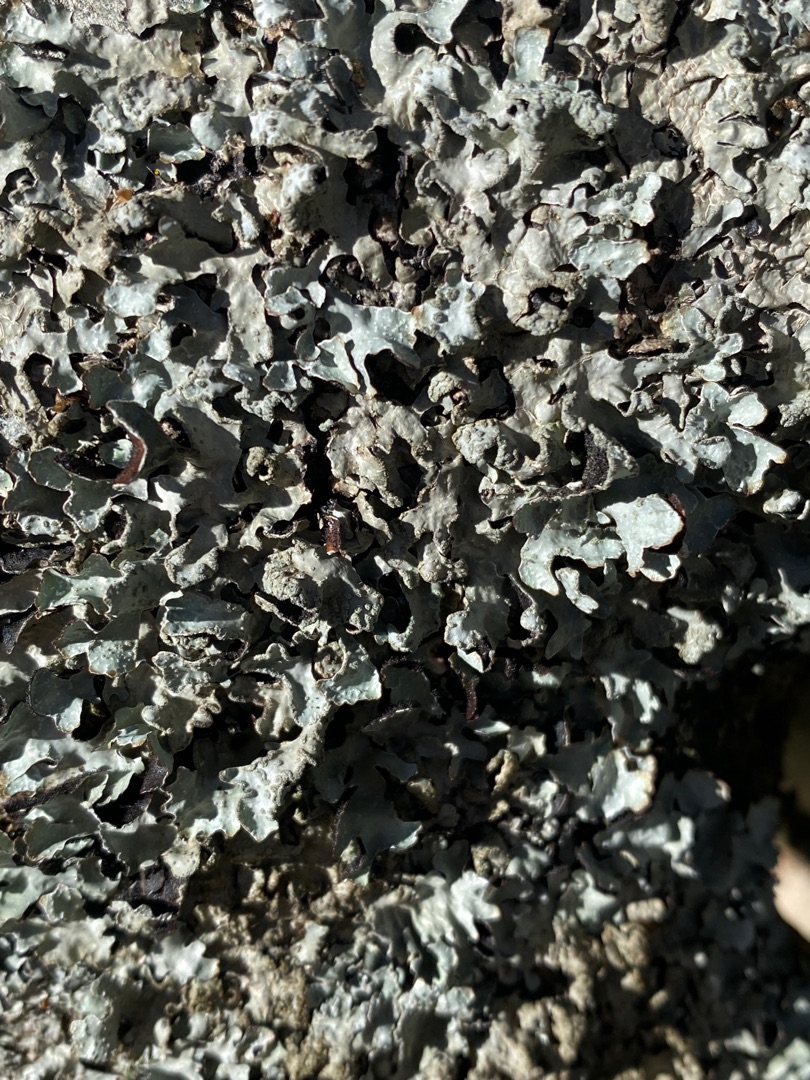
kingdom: Fungi
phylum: Ascomycota
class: Lecanoromycetes
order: Lecanorales
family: Parmeliaceae
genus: Parmelia
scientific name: Parmelia sulcata
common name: Rynket skållav
